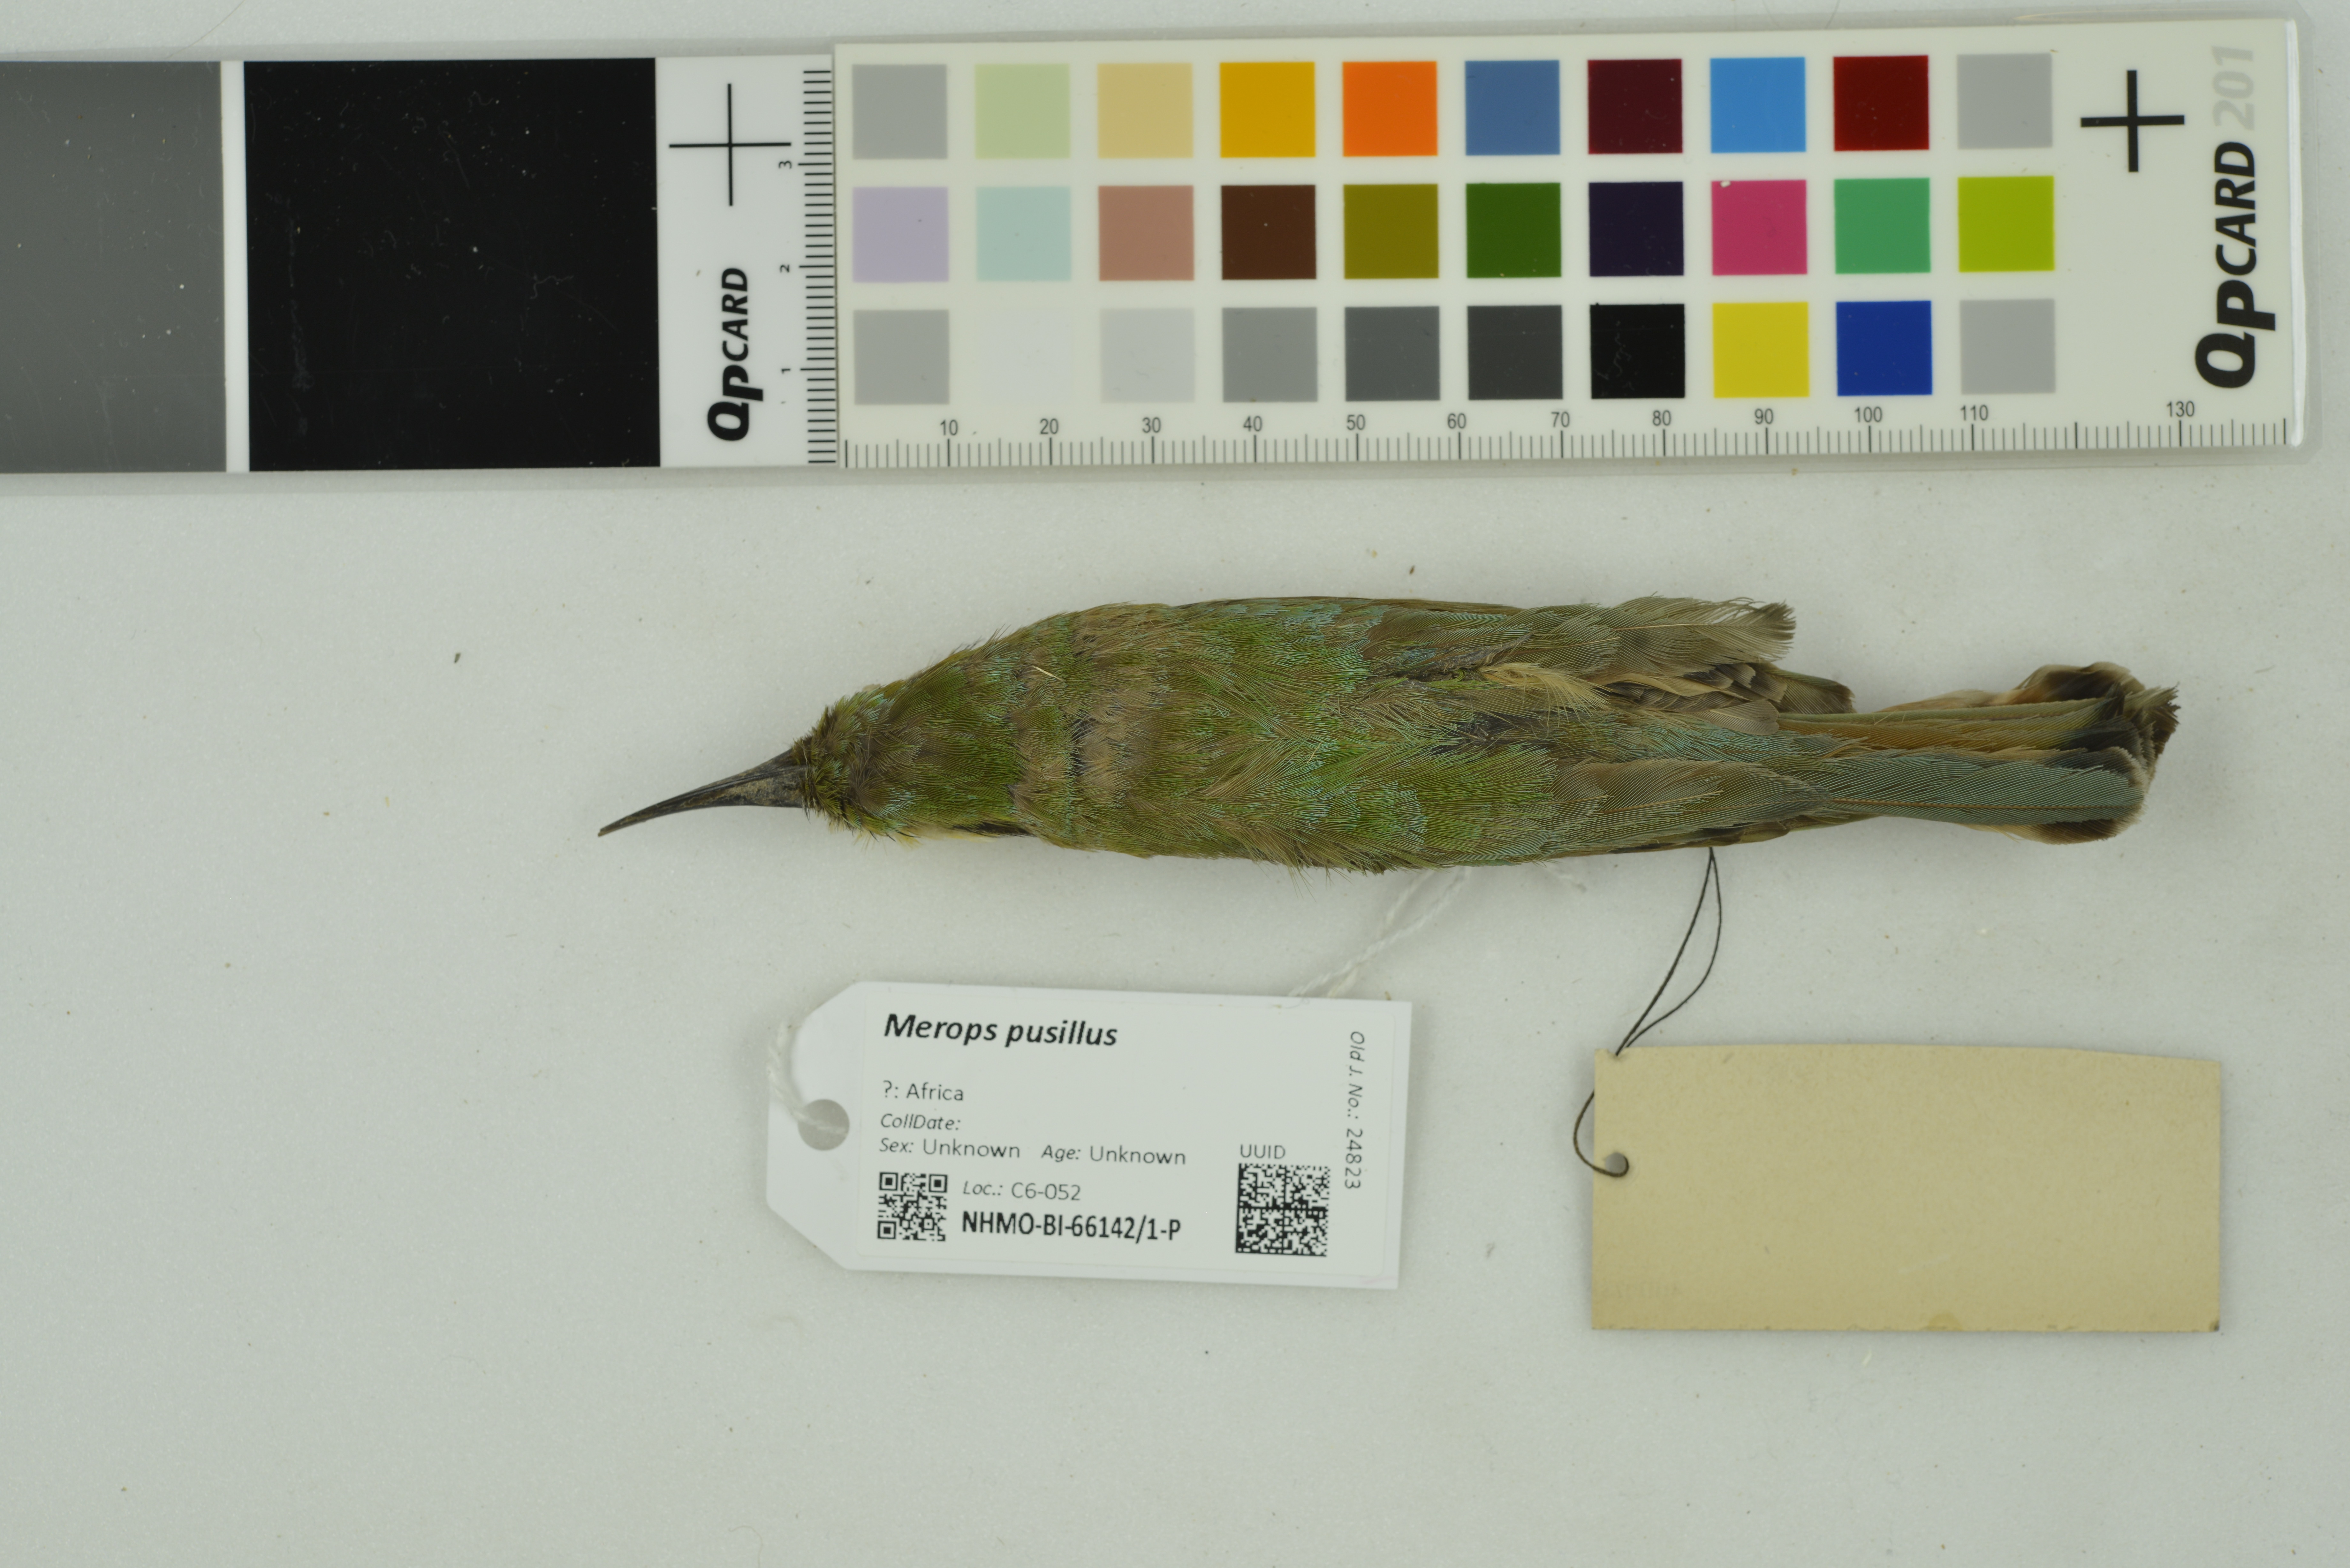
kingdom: Animalia
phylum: Chordata
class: Aves
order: Coraciiformes
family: Meropidae
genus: Merops
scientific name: Merops pusillus
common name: Little bee-eater
